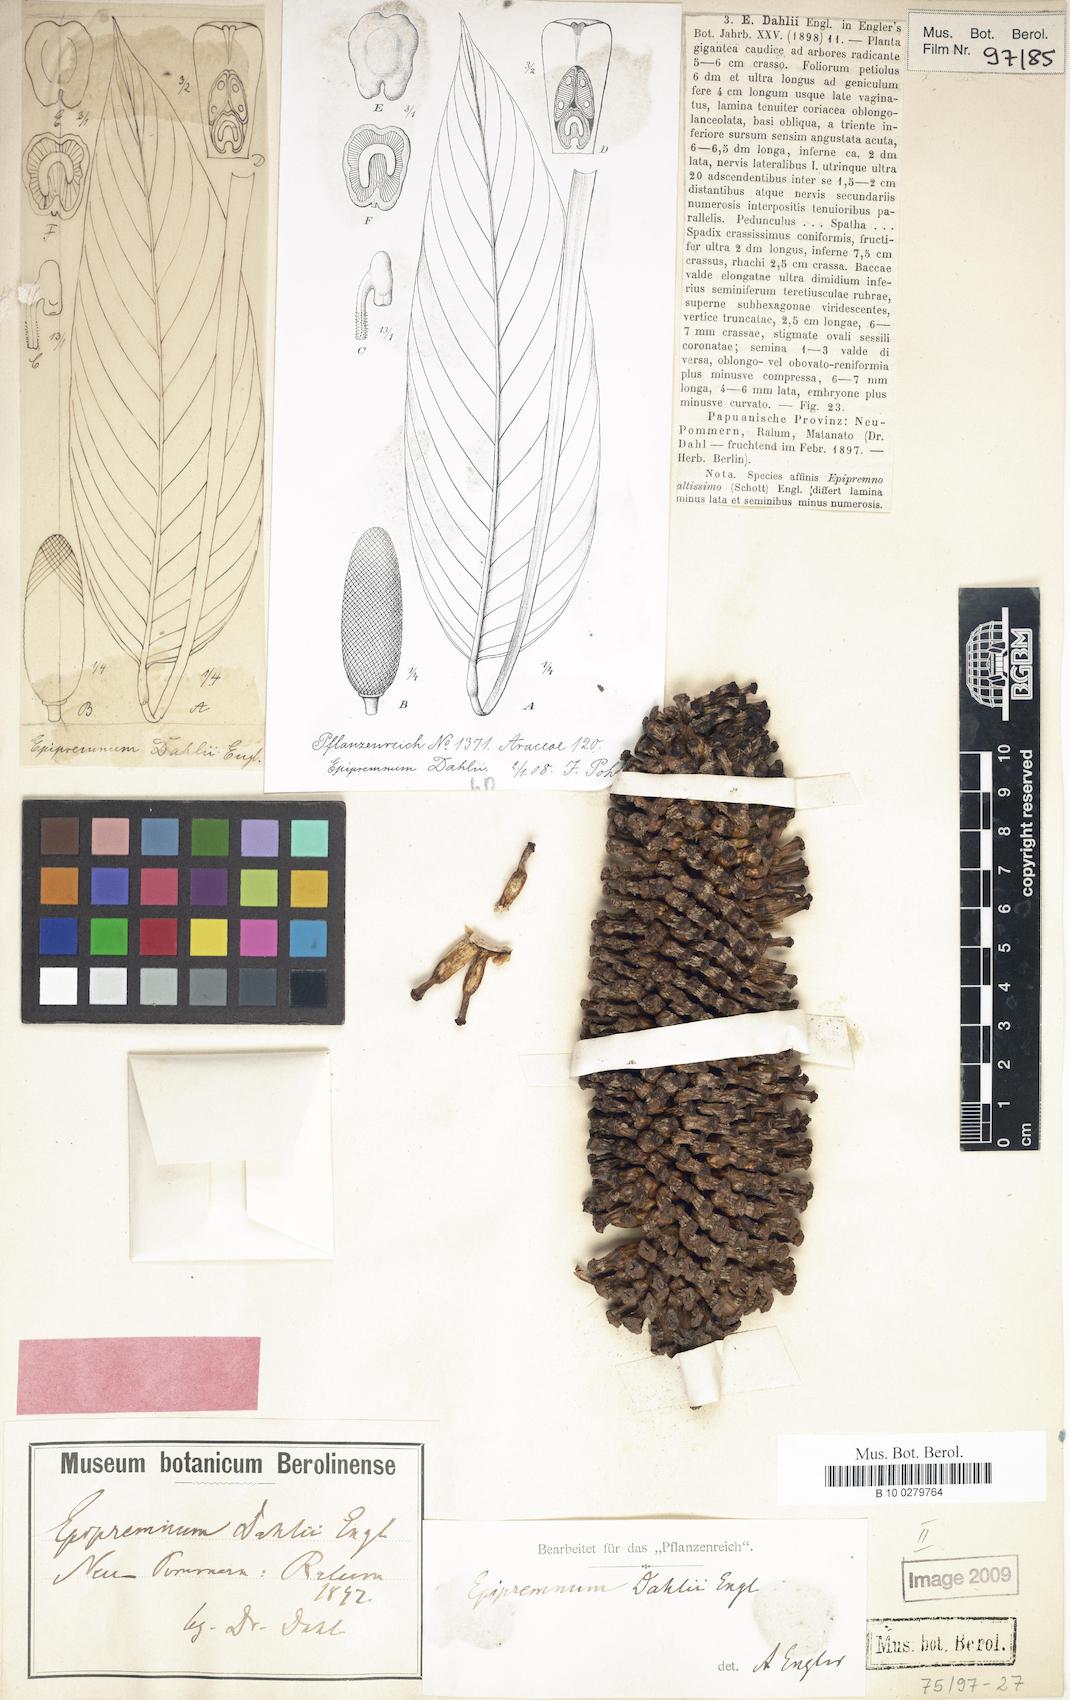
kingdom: Plantae
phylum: Tracheophyta
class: Liliopsida
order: Alismatales
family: Araceae
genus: Epipremnum
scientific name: Epipremnum dahlii
